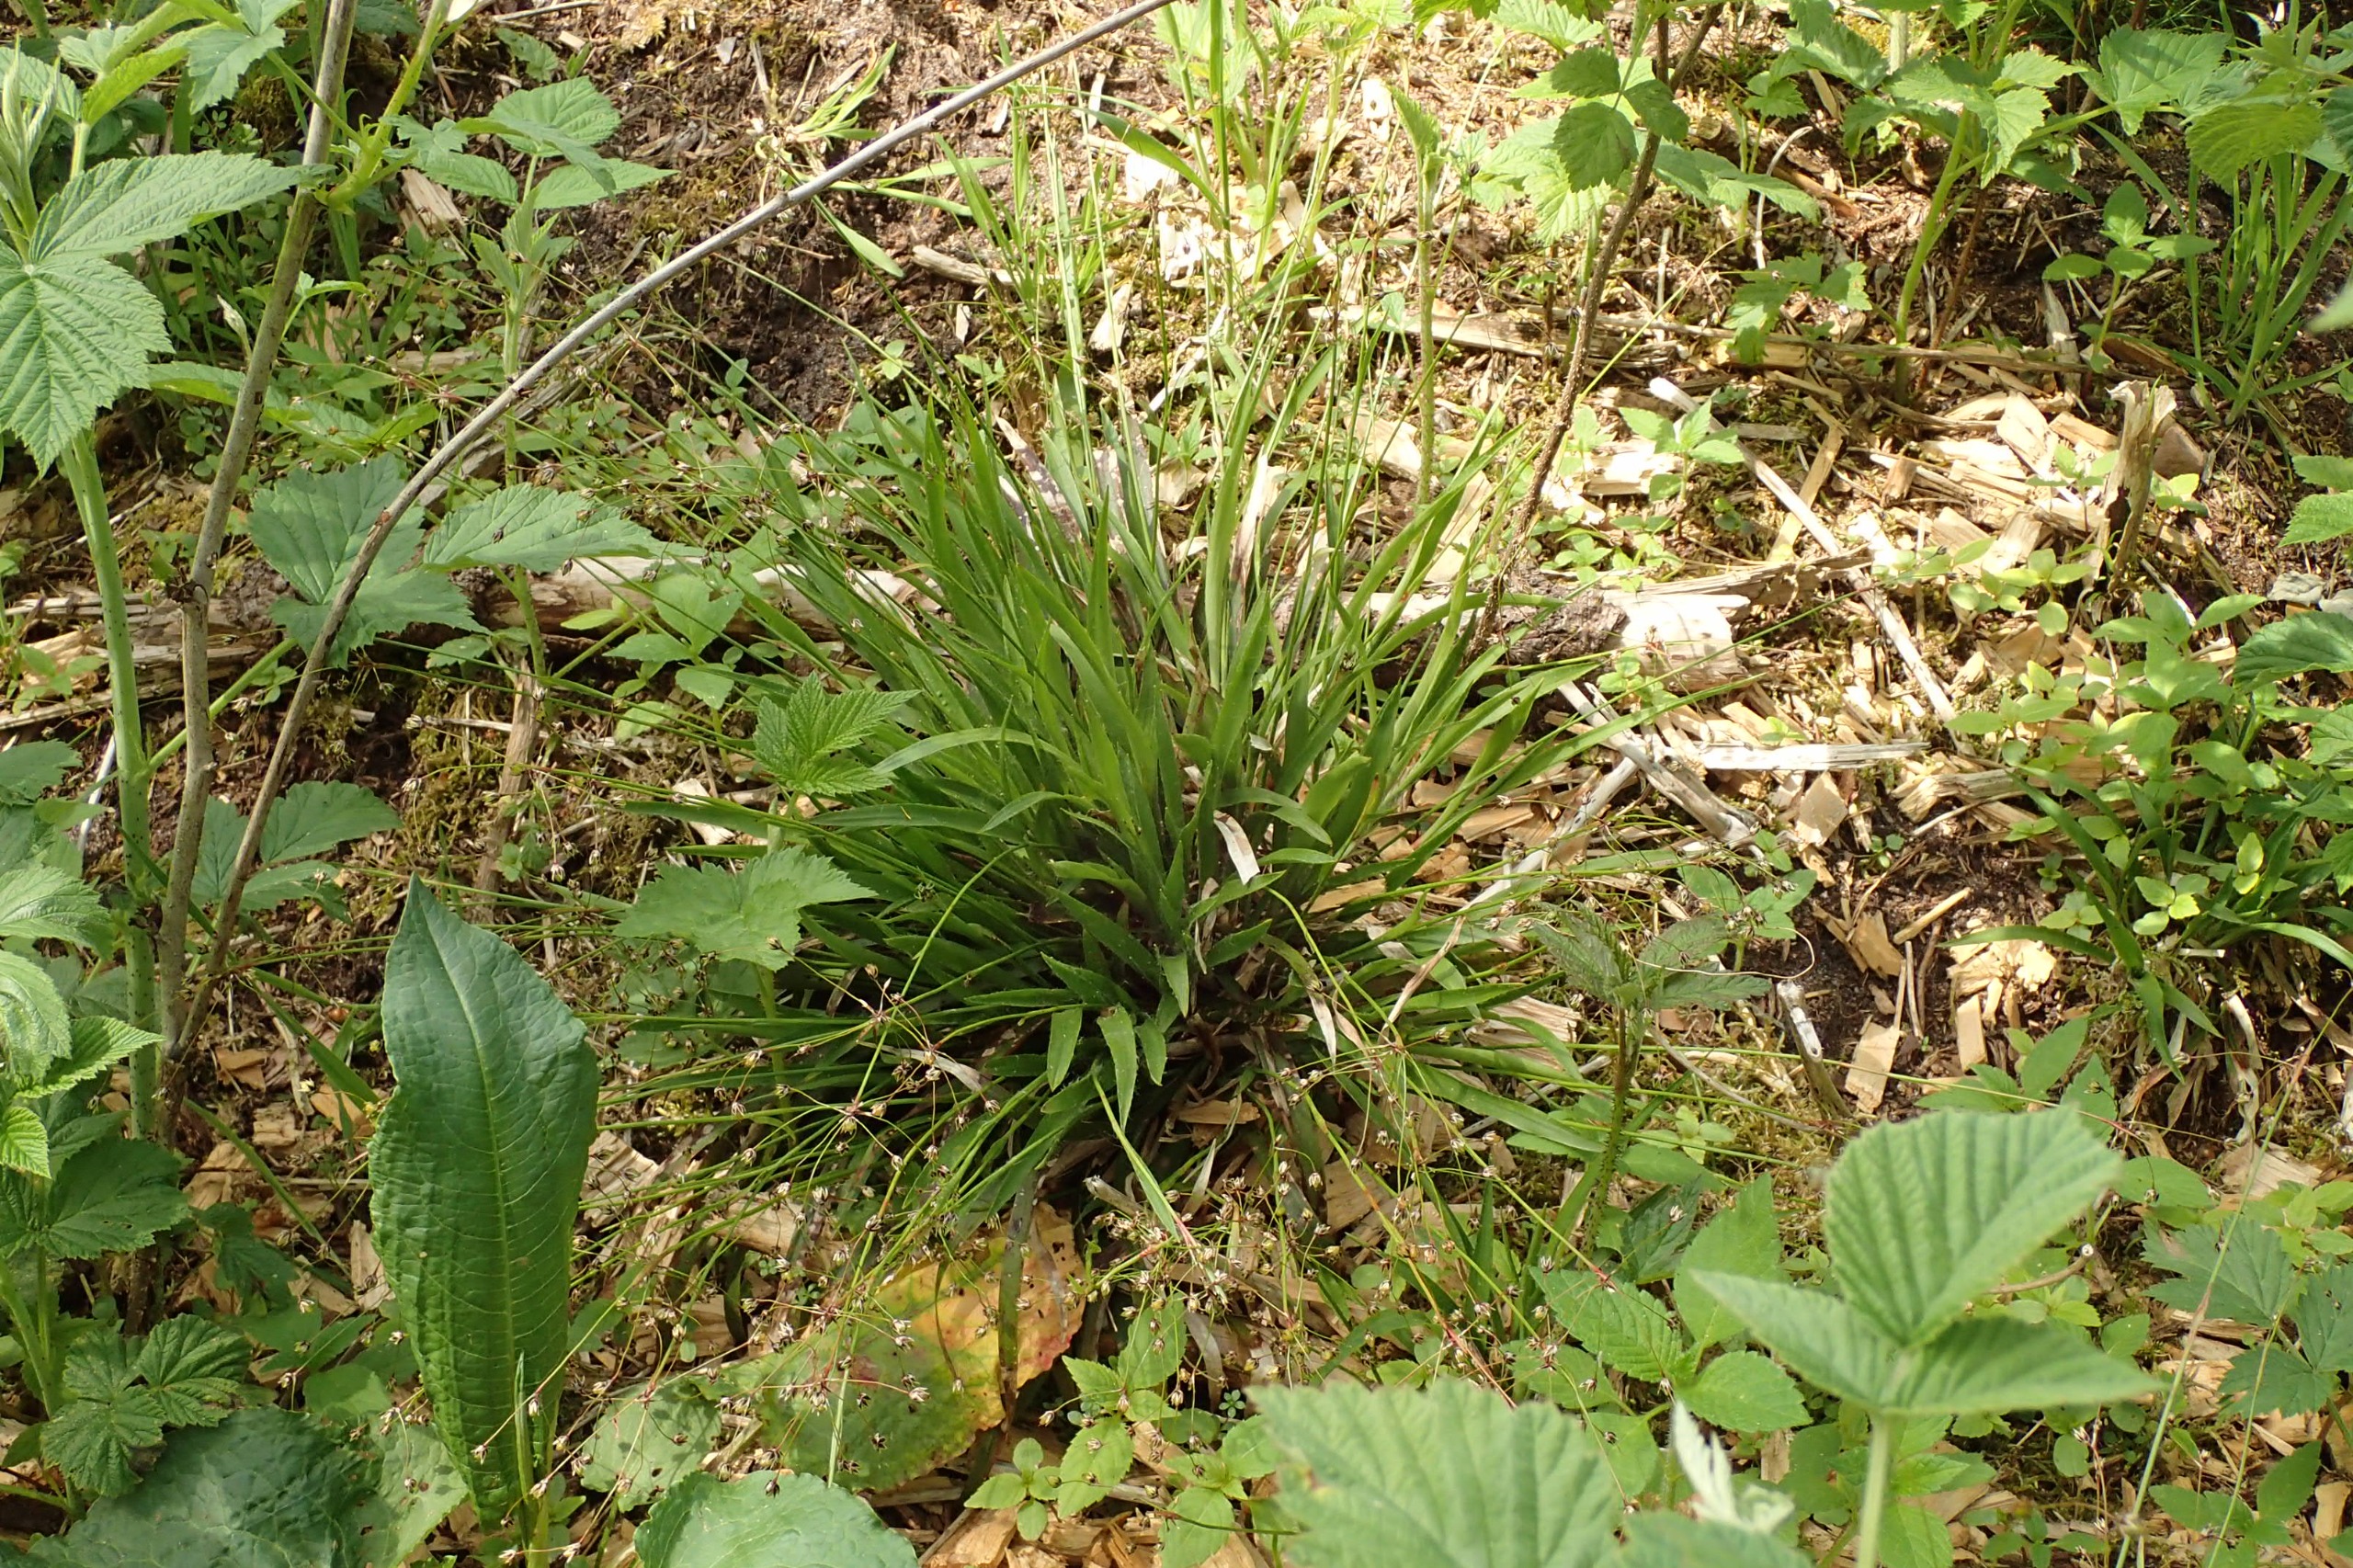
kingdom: Plantae
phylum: Tracheophyta
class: Liliopsida
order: Poales
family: Juncaceae
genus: Luzula
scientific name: Luzula pilosa
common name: Håret frytle
